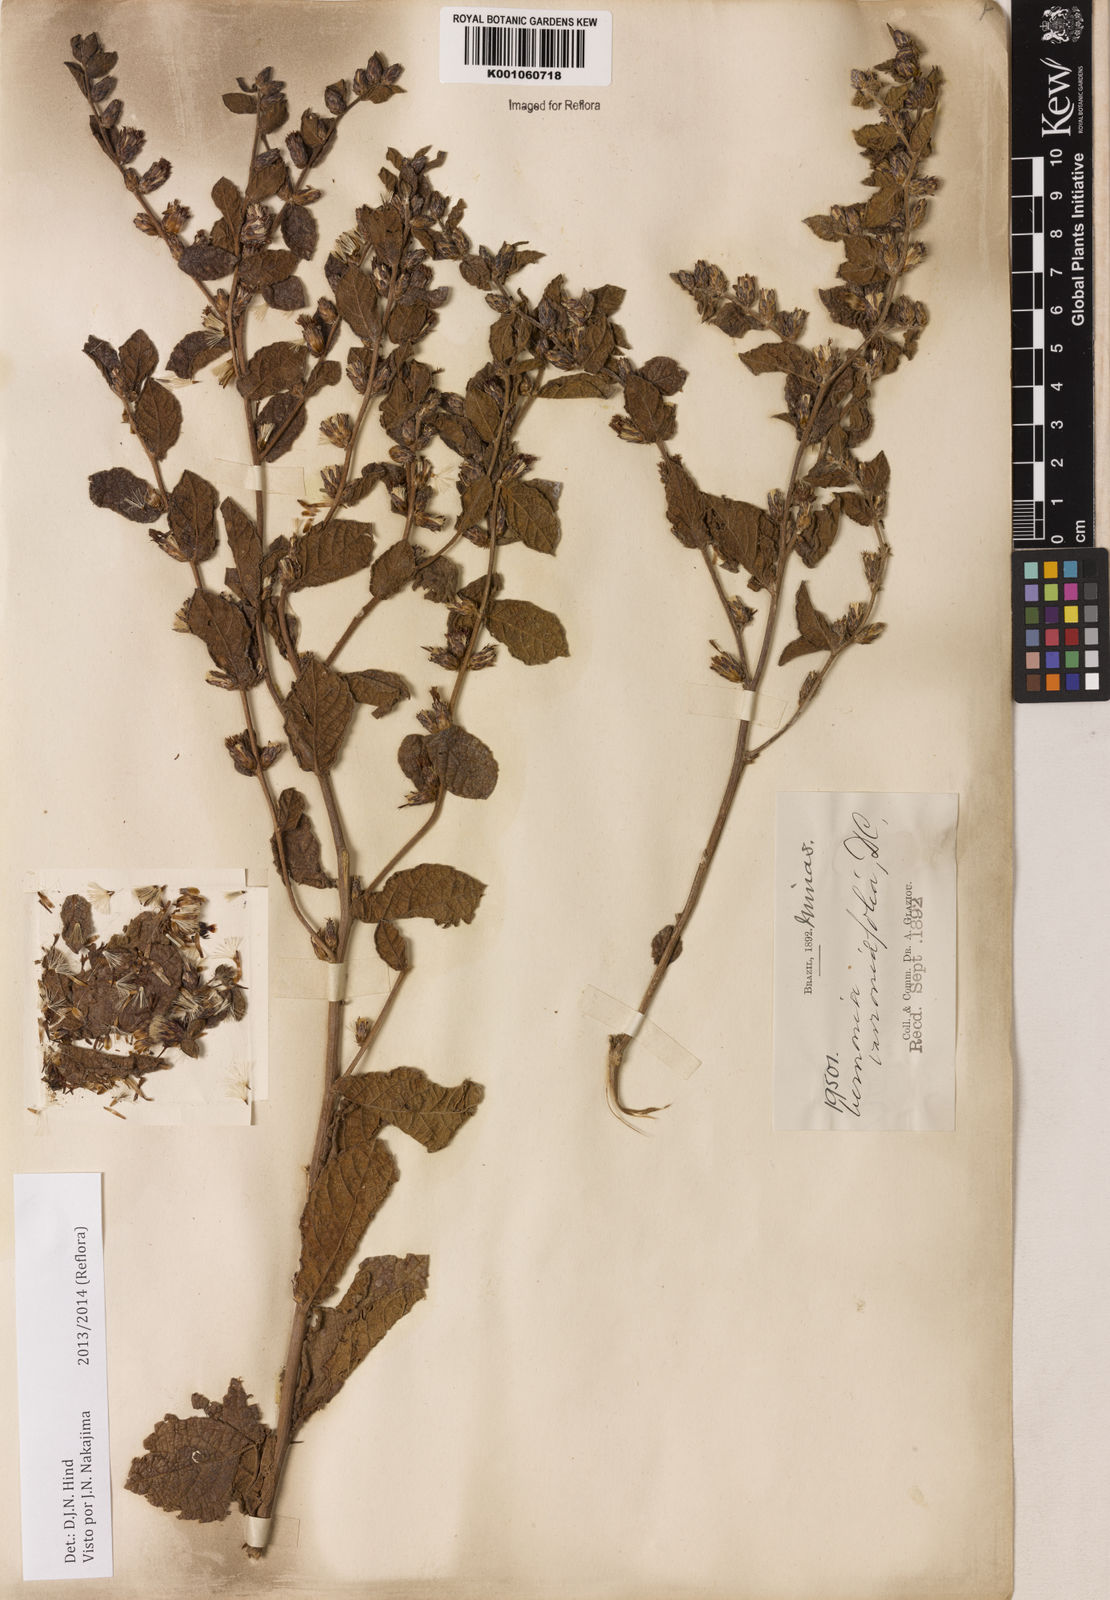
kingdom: Plantae
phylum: Tracheophyta
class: Magnoliopsida
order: Asterales
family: Asteraceae
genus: Lessingianthus
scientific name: Lessingianthus varroniifolius
